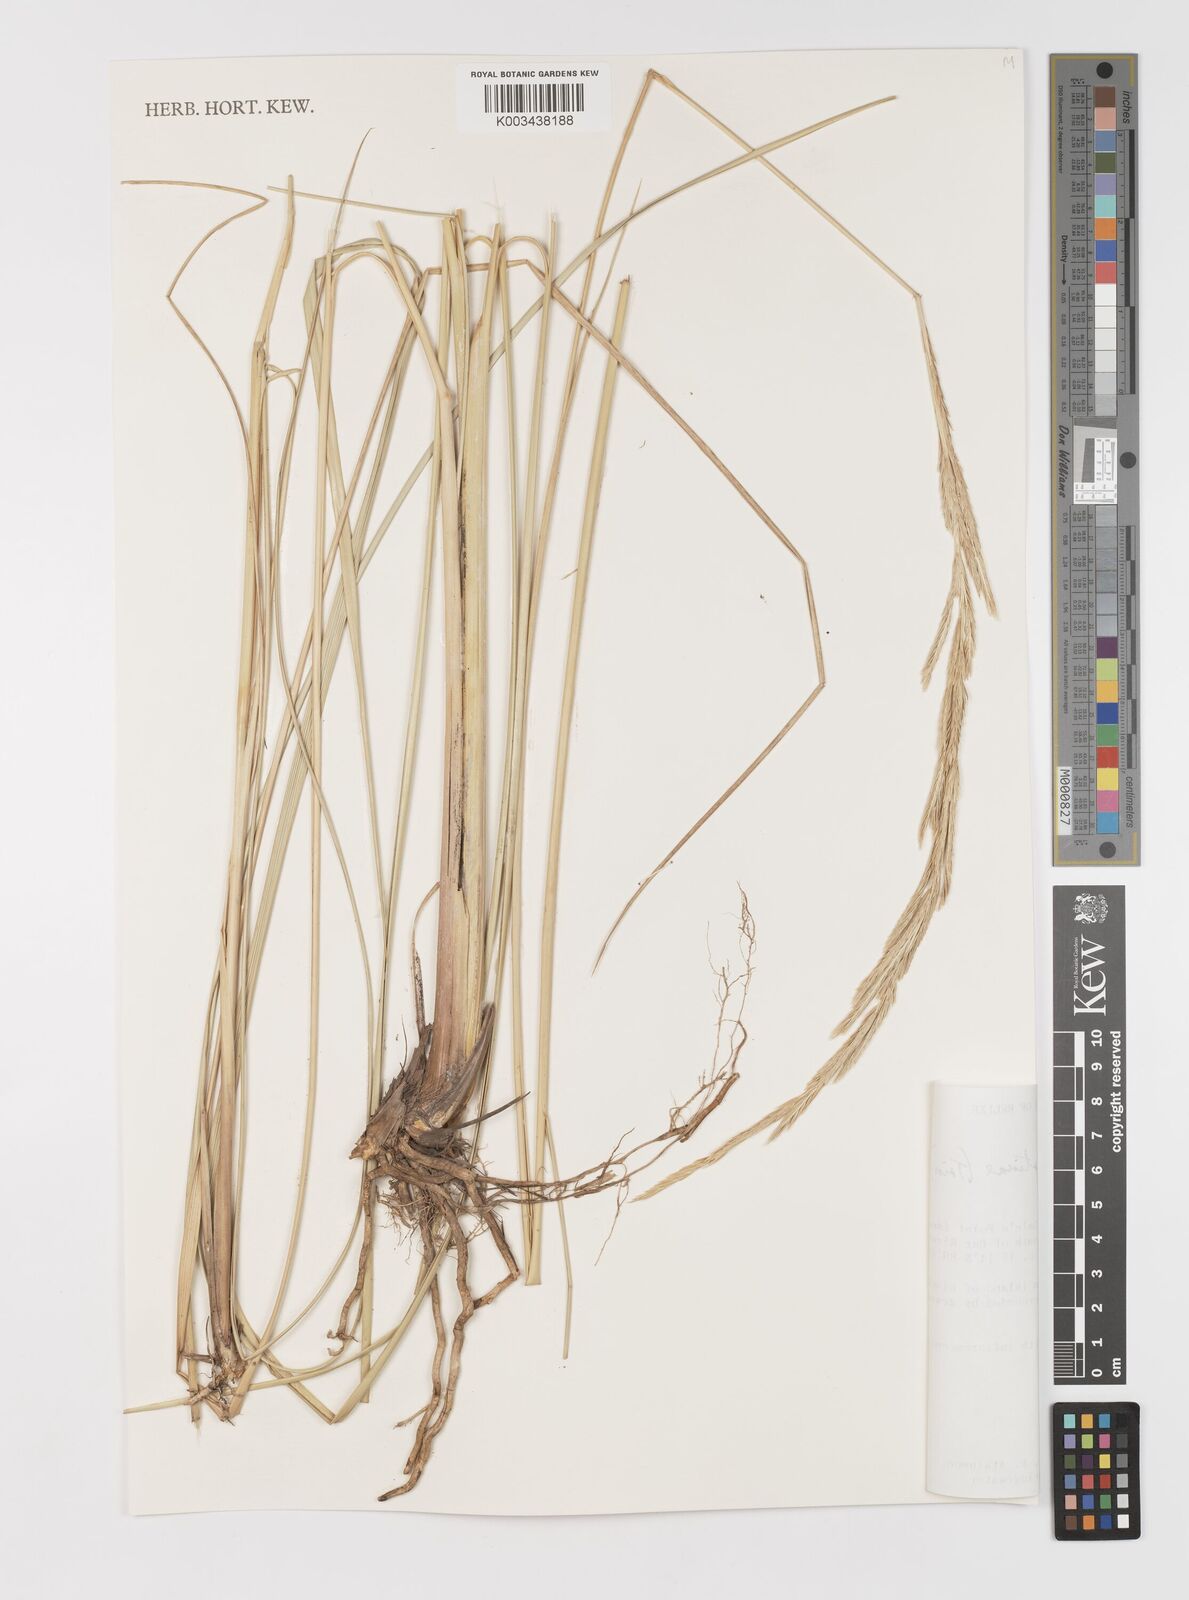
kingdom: Plantae
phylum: Tracheophyta
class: Liliopsida
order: Poales
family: Poaceae
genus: Sporobolus
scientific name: Sporobolus spartinae
